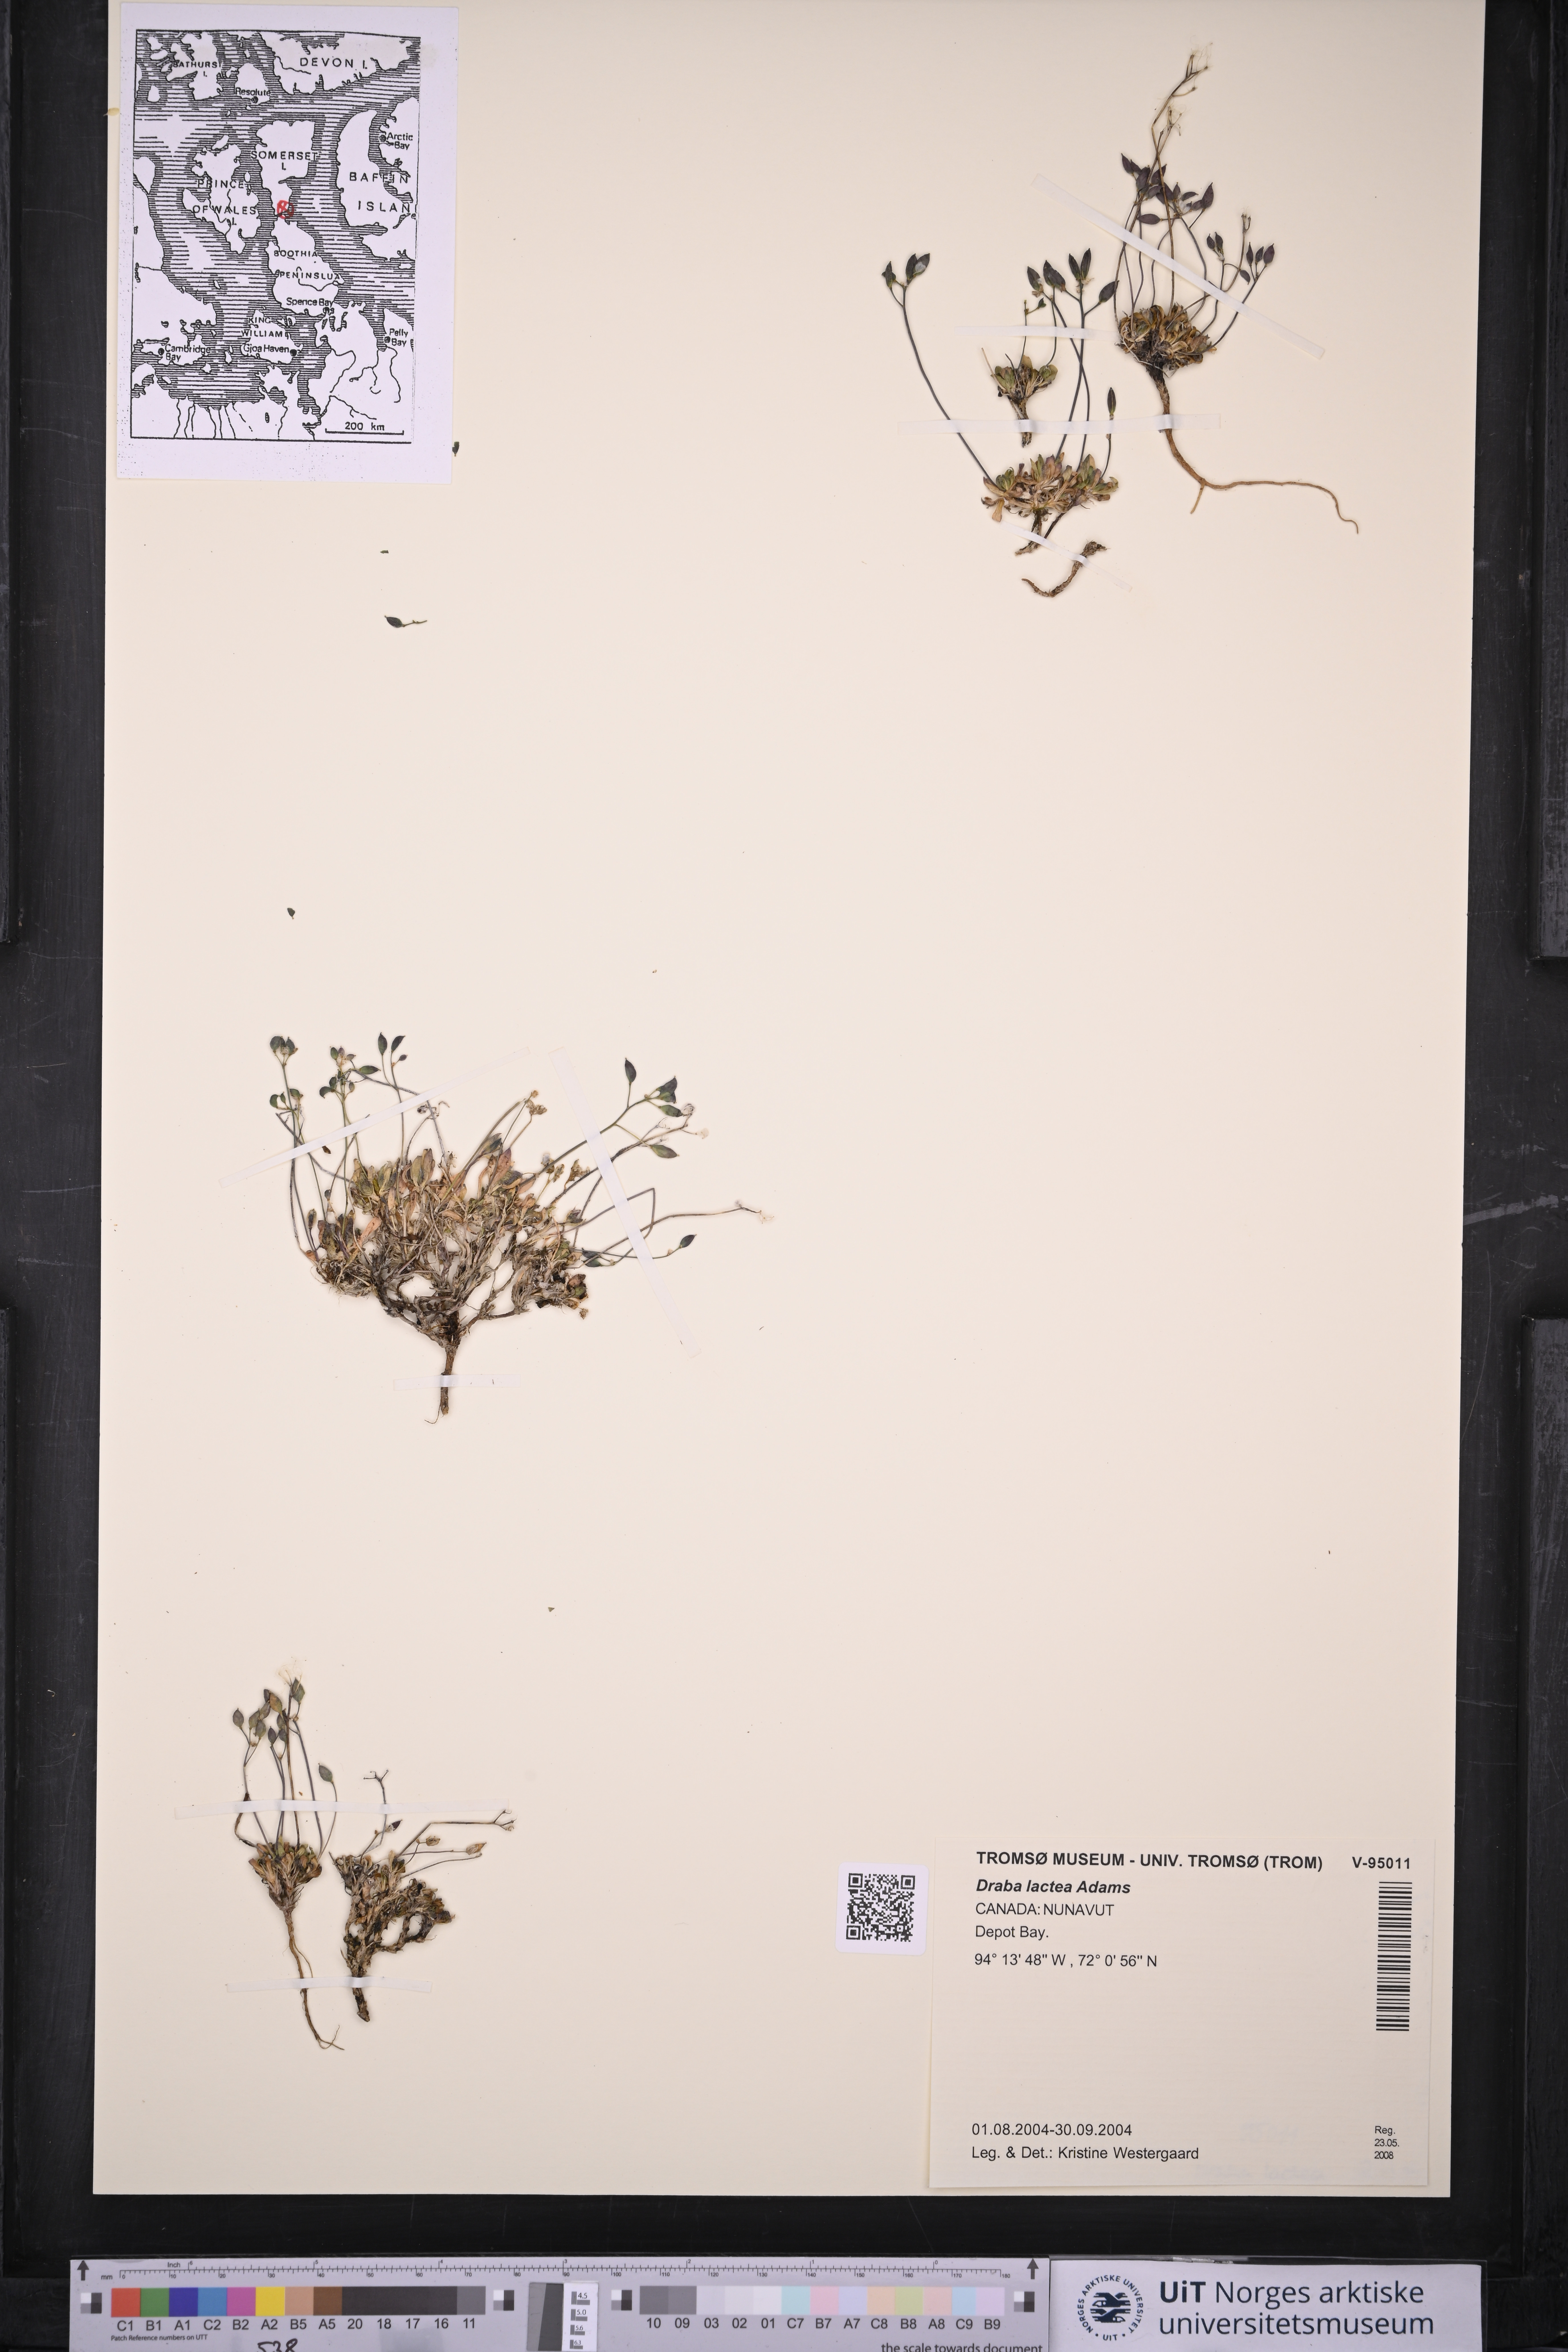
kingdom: Plantae
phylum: Tracheophyta
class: Magnoliopsida
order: Brassicales
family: Brassicaceae
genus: Draba
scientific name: Draba lactea
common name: Milky draba
